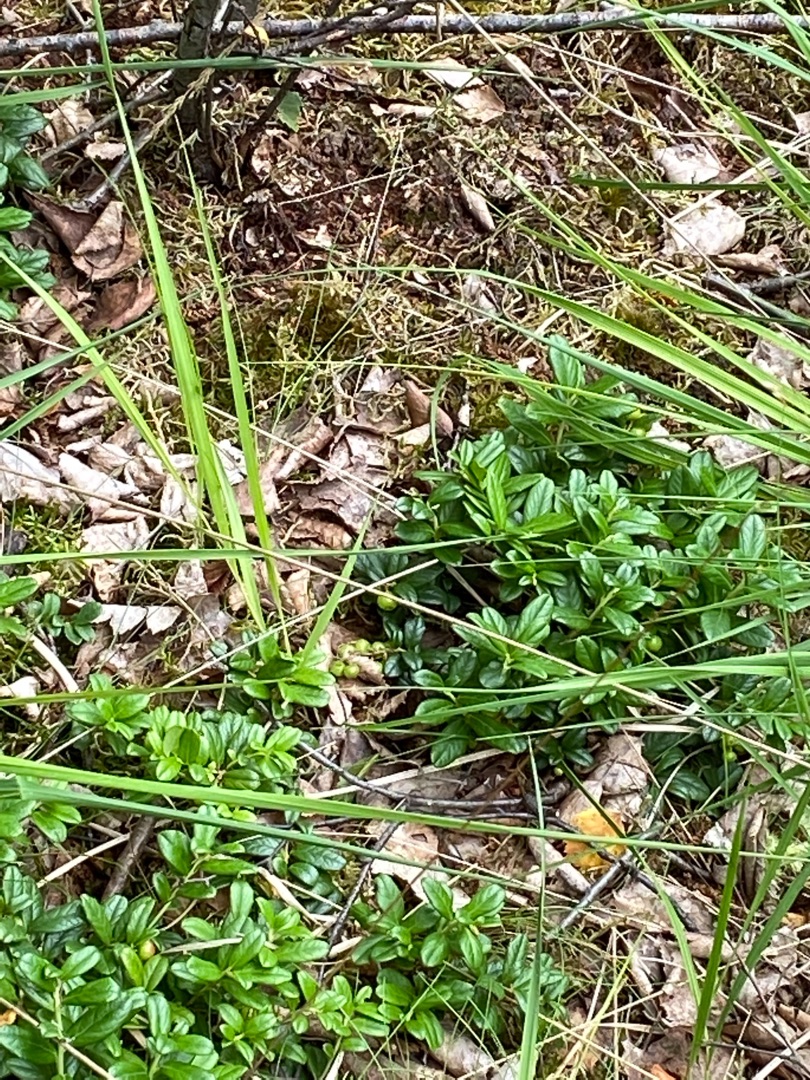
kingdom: Plantae
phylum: Tracheophyta
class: Magnoliopsida
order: Ericales
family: Ericaceae
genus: Vaccinium
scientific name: Vaccinium vitis-idaea
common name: Tyttebær
